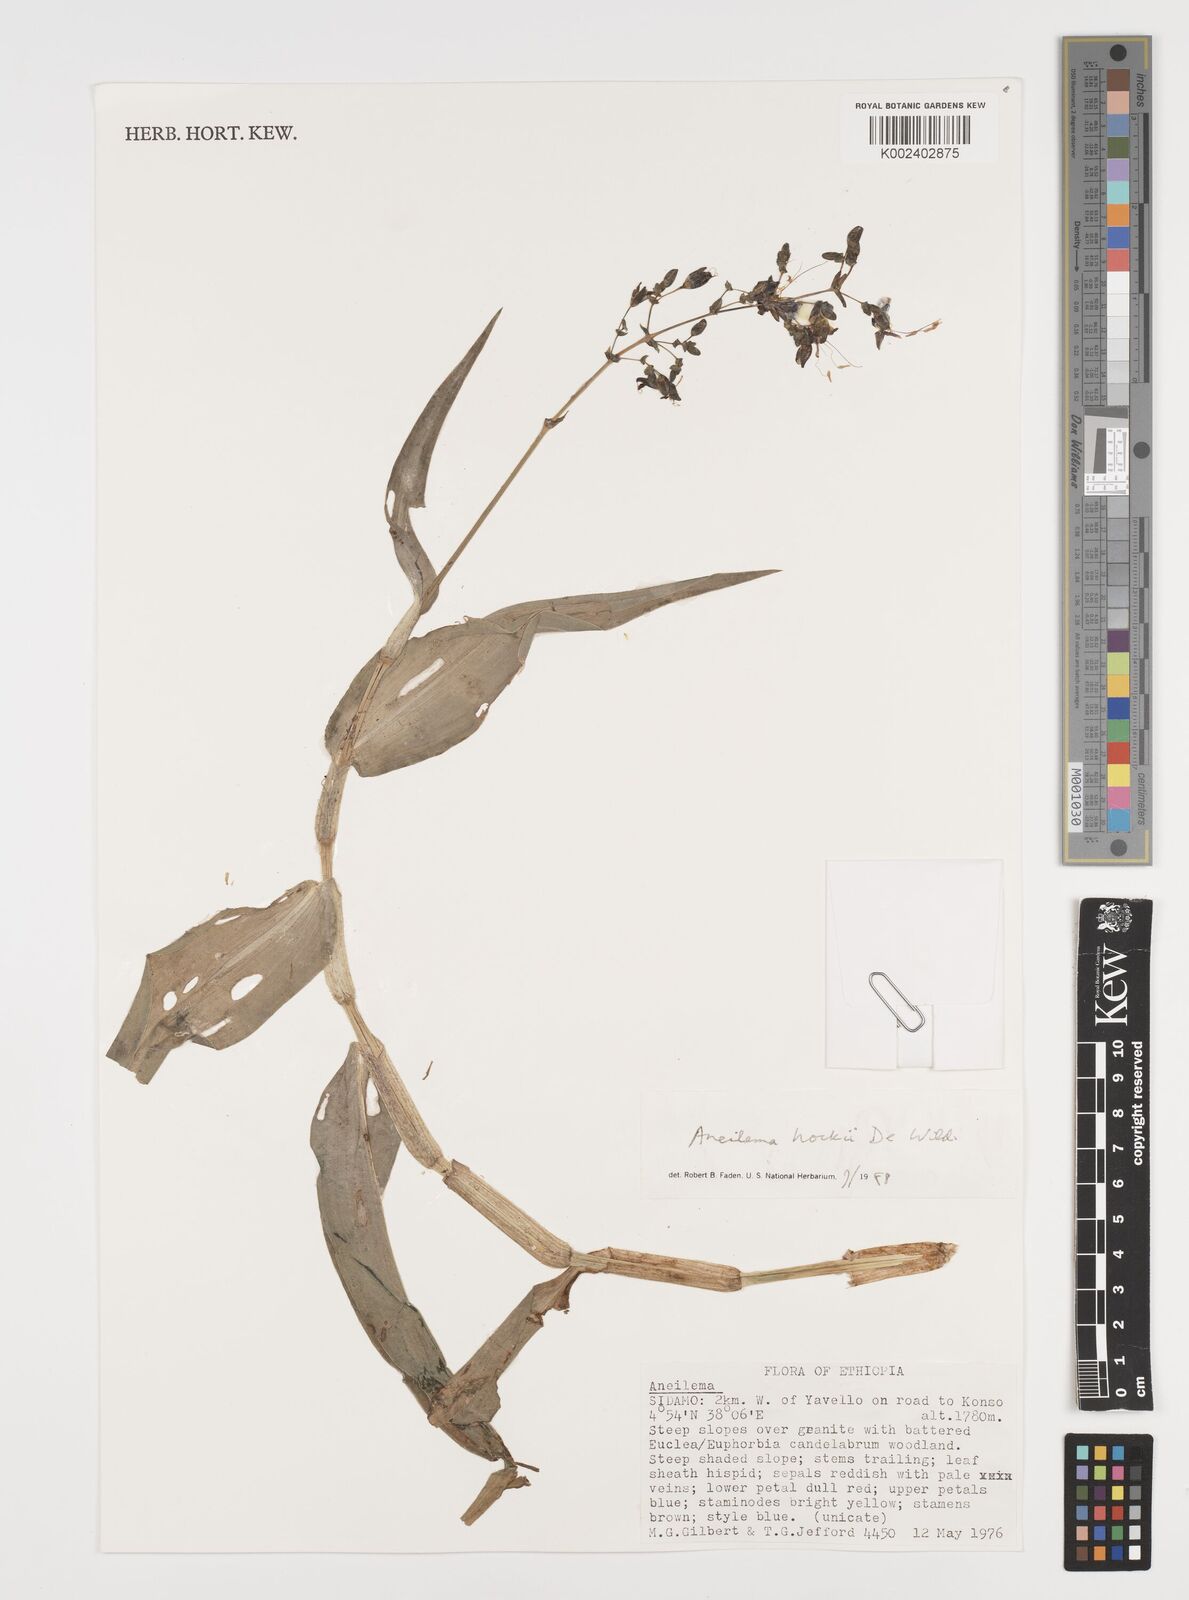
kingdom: Plantae
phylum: Tracheophyta
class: Liliopsida
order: Commelinales
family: Commelinaceae
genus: Aneilema
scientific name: Aneilema hockii
